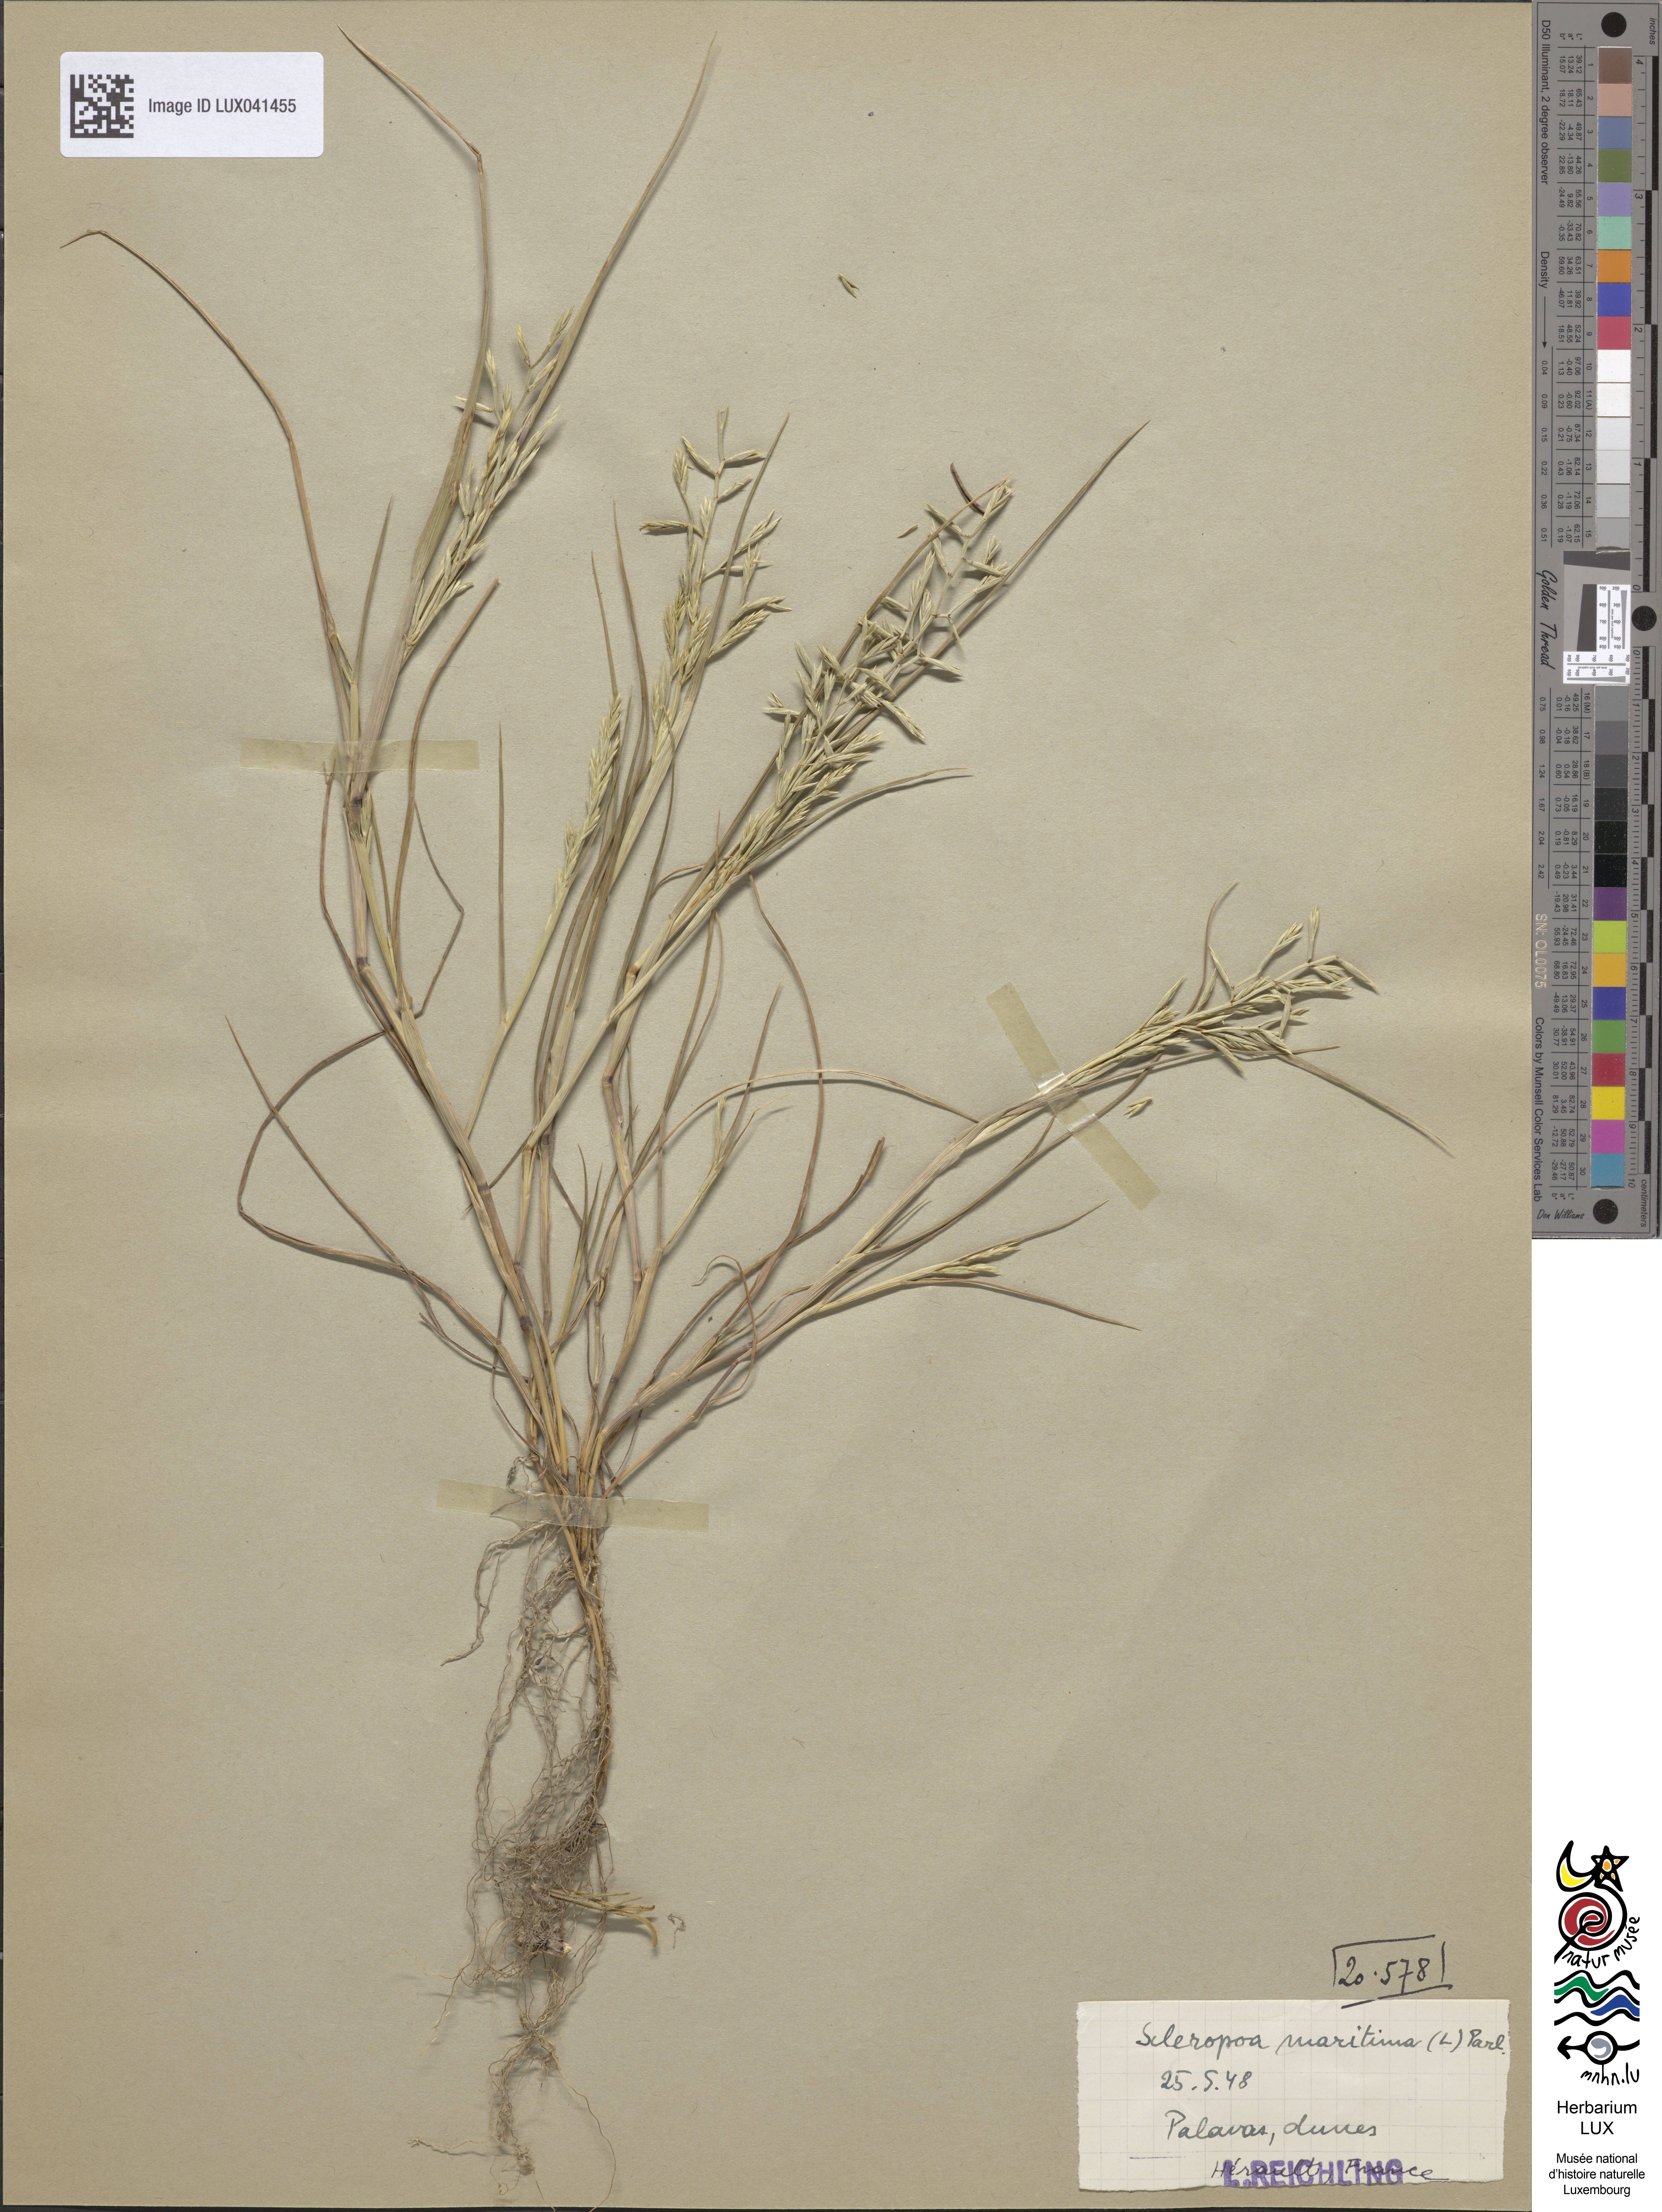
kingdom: Plantae
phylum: Tracheophyta
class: Liliopsida
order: Poales
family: Poaceae
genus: Cutandia
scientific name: Cutandia maritima
